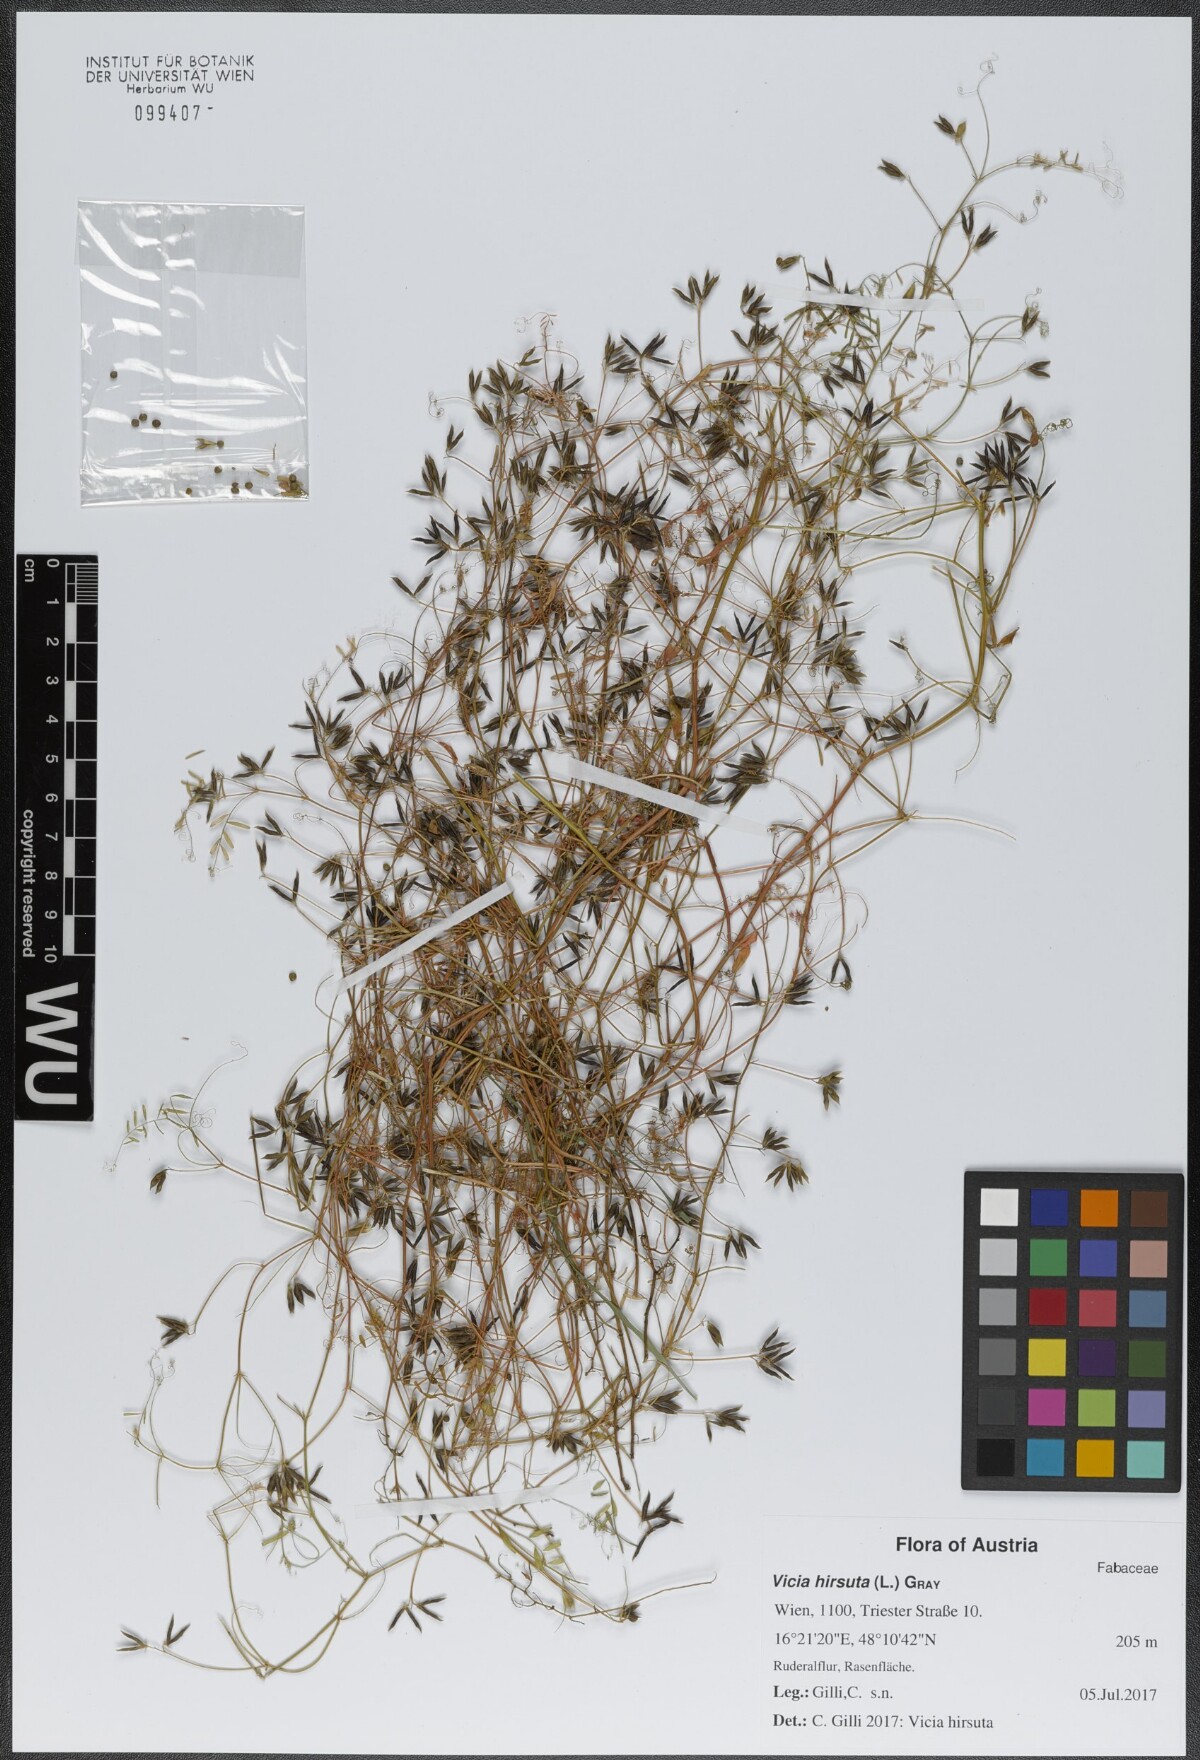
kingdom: Plantae
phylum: Tracheophyta
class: Magnoliopsida
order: Fabales
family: Fabaceae
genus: Vicia
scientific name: Vicia hirsuta
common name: Tiny vetch
